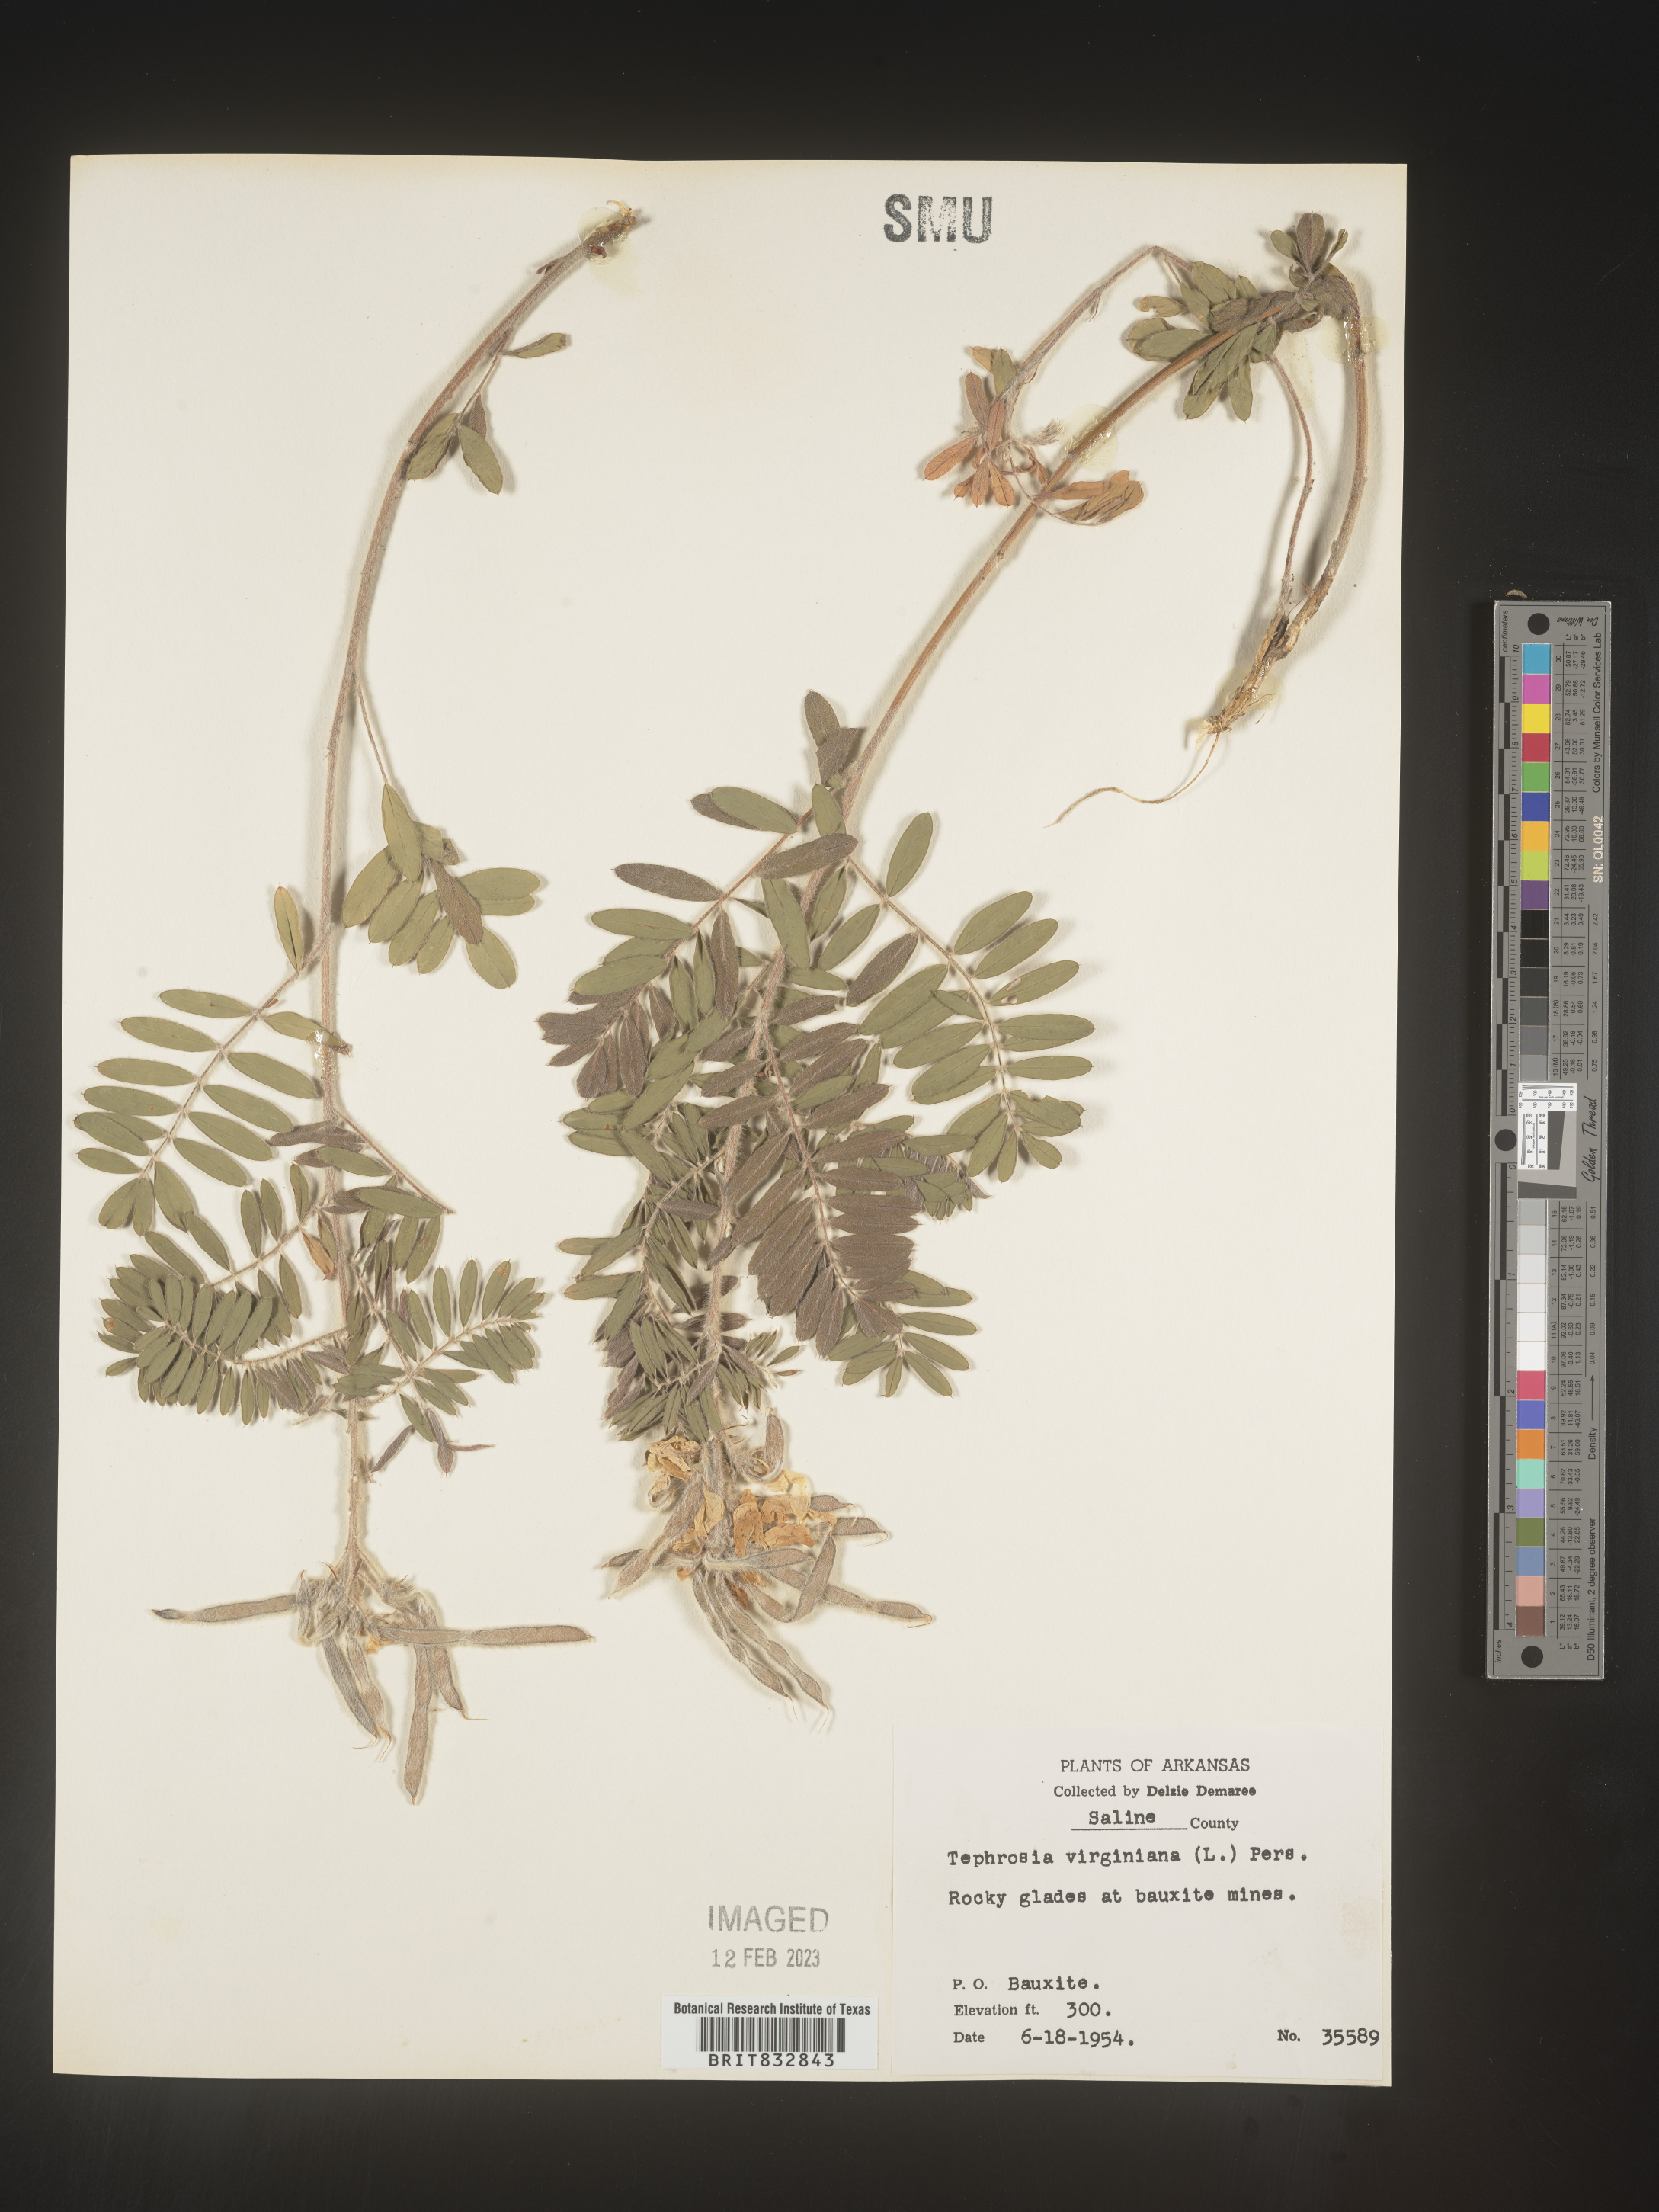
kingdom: Plantae
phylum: Tracheophyta
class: Magnoliopsida
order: Fabales
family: Fabaceae
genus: Tephrosia
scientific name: Tephrosia virginiana
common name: Rabbit-pea
